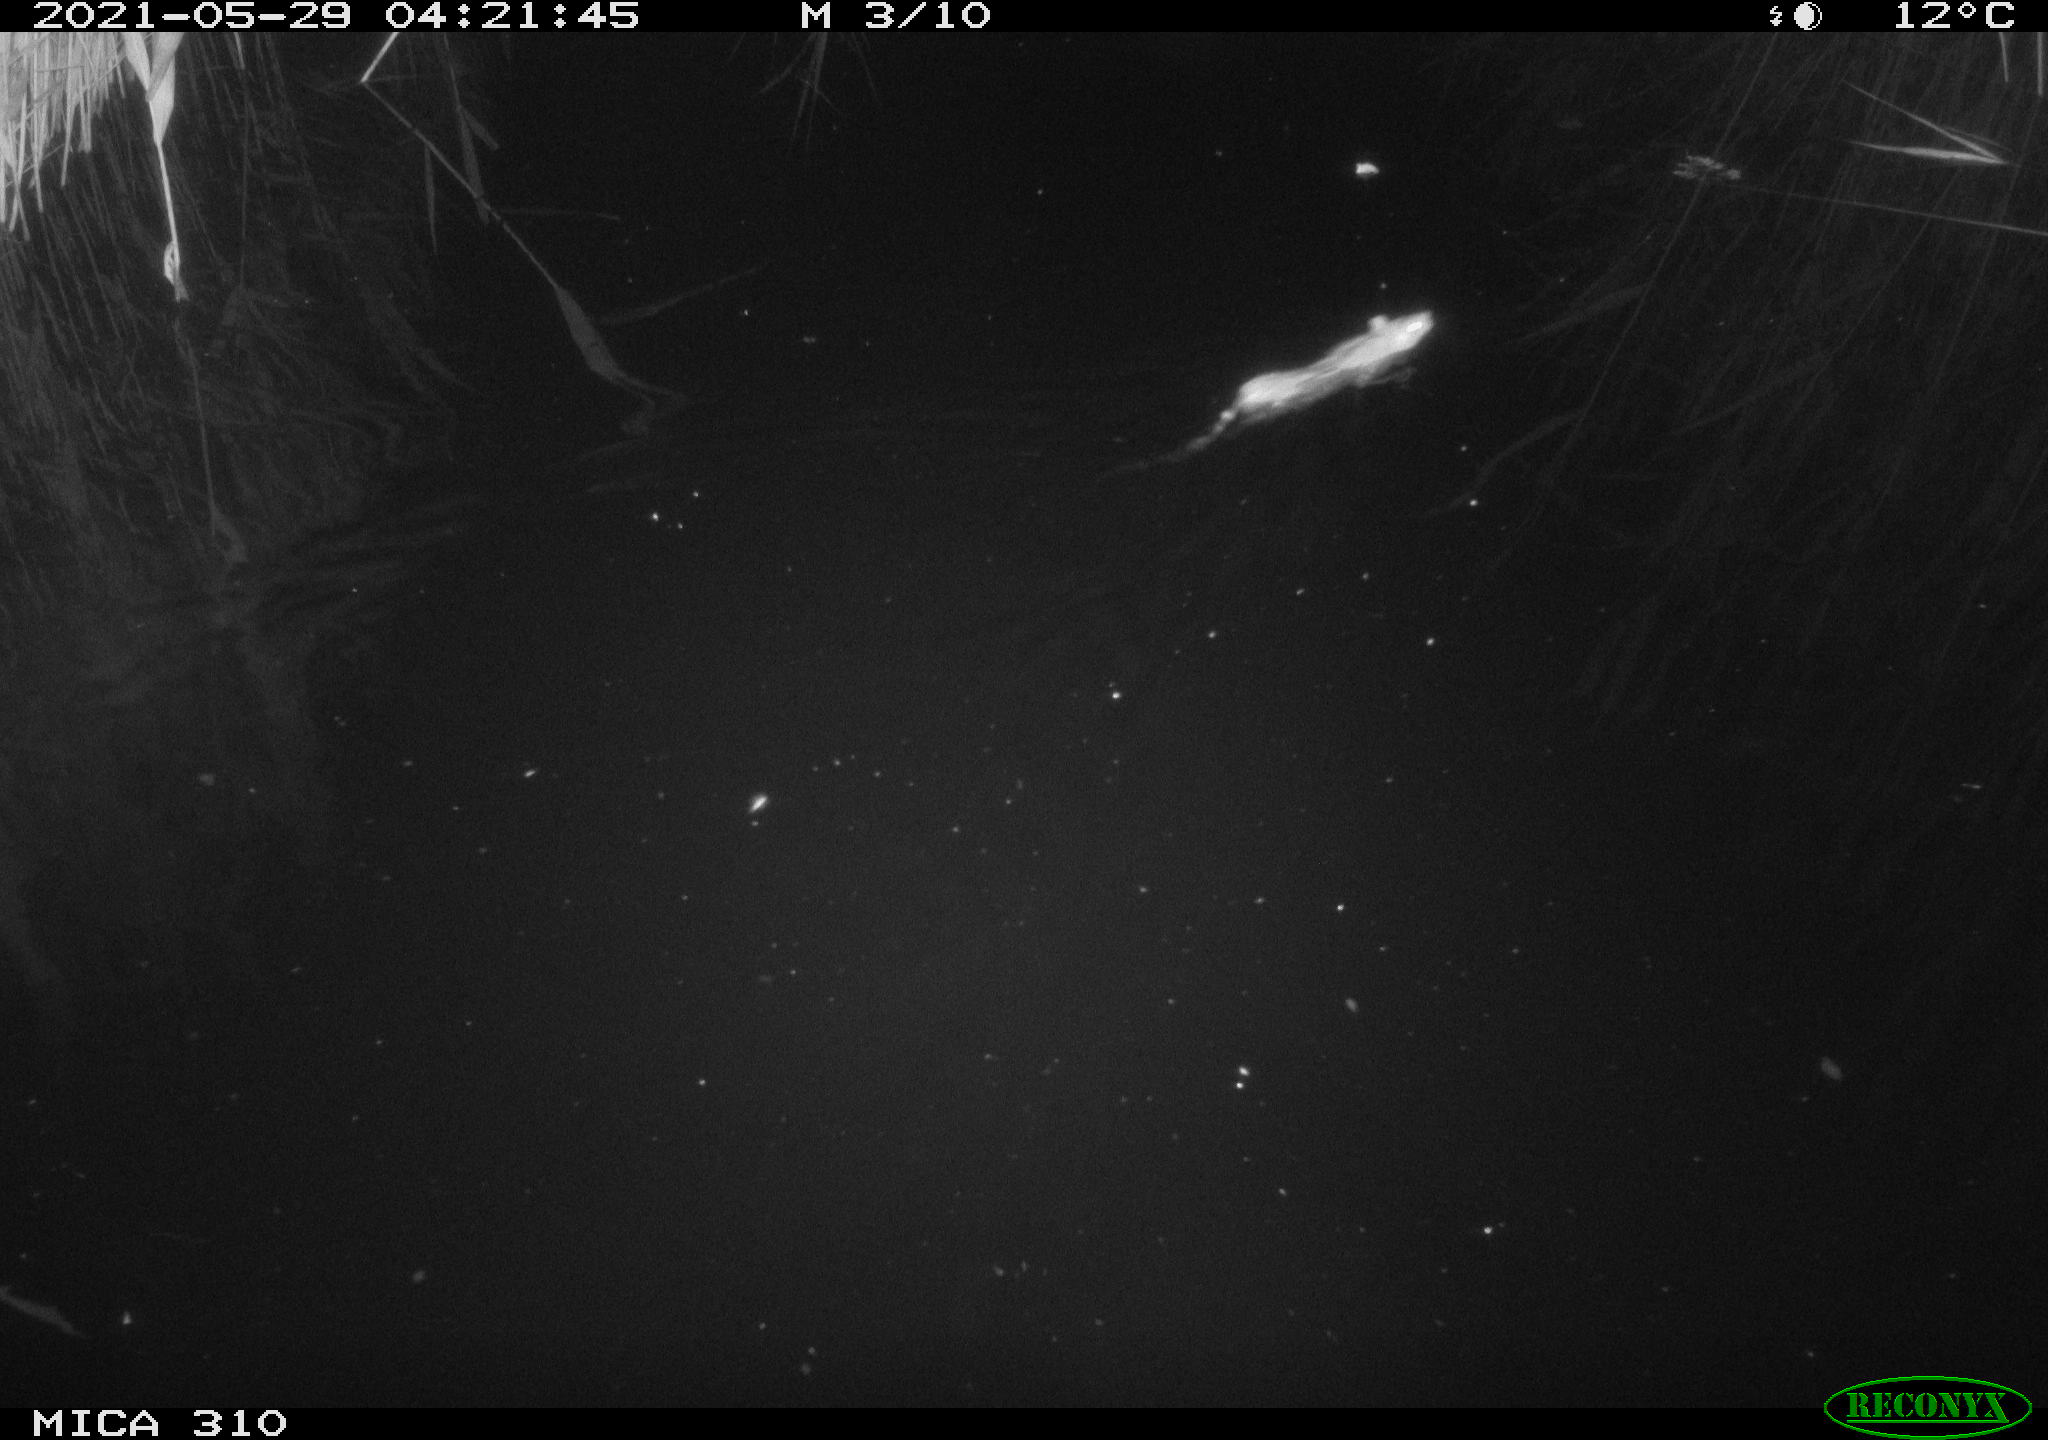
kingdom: Animalia
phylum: Chordata
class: Mammalia
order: Rodentia
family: Muridae
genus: Rattus
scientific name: Rattus norvegicus
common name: Brown rat
